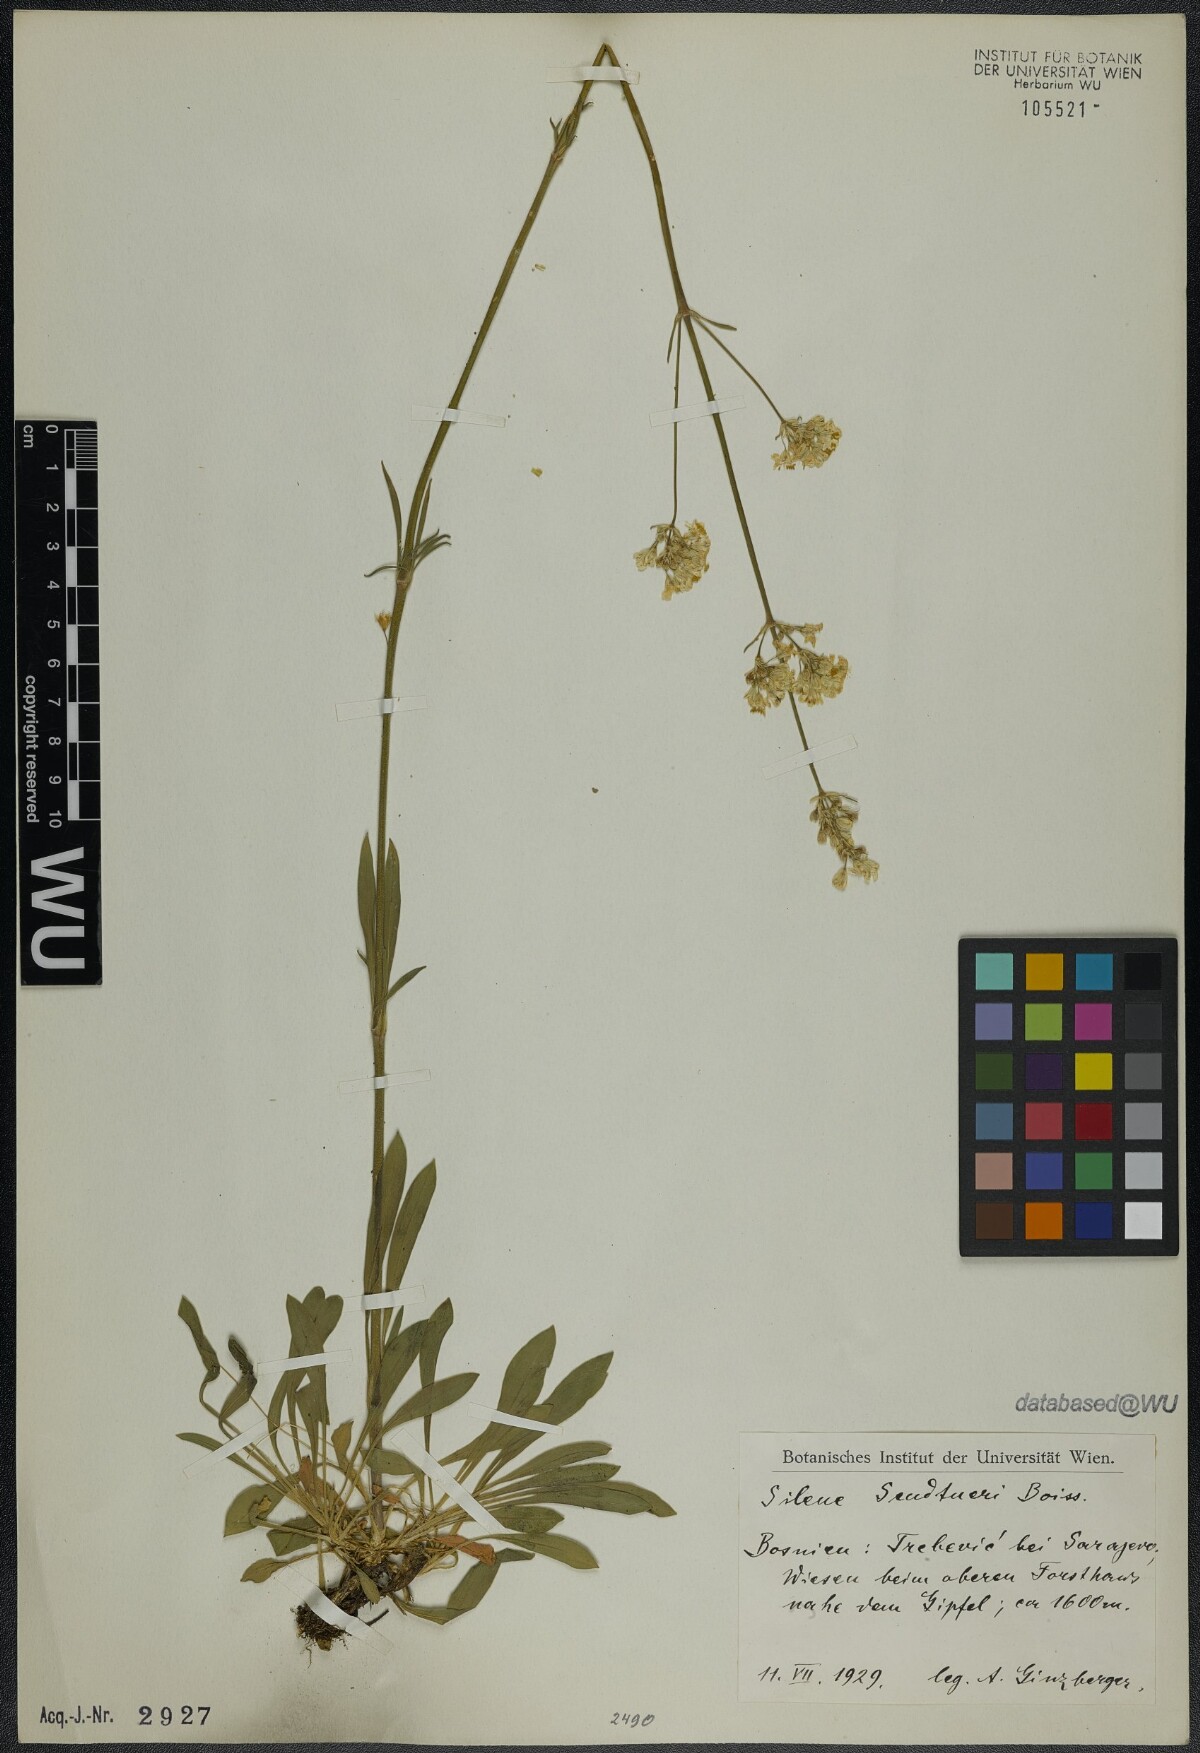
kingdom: Plantae
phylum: Tracheophyta
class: Magnoliopsida
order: Caryophyllales
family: Caryophyllaceae
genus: Silene
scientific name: Silene sendtneri
